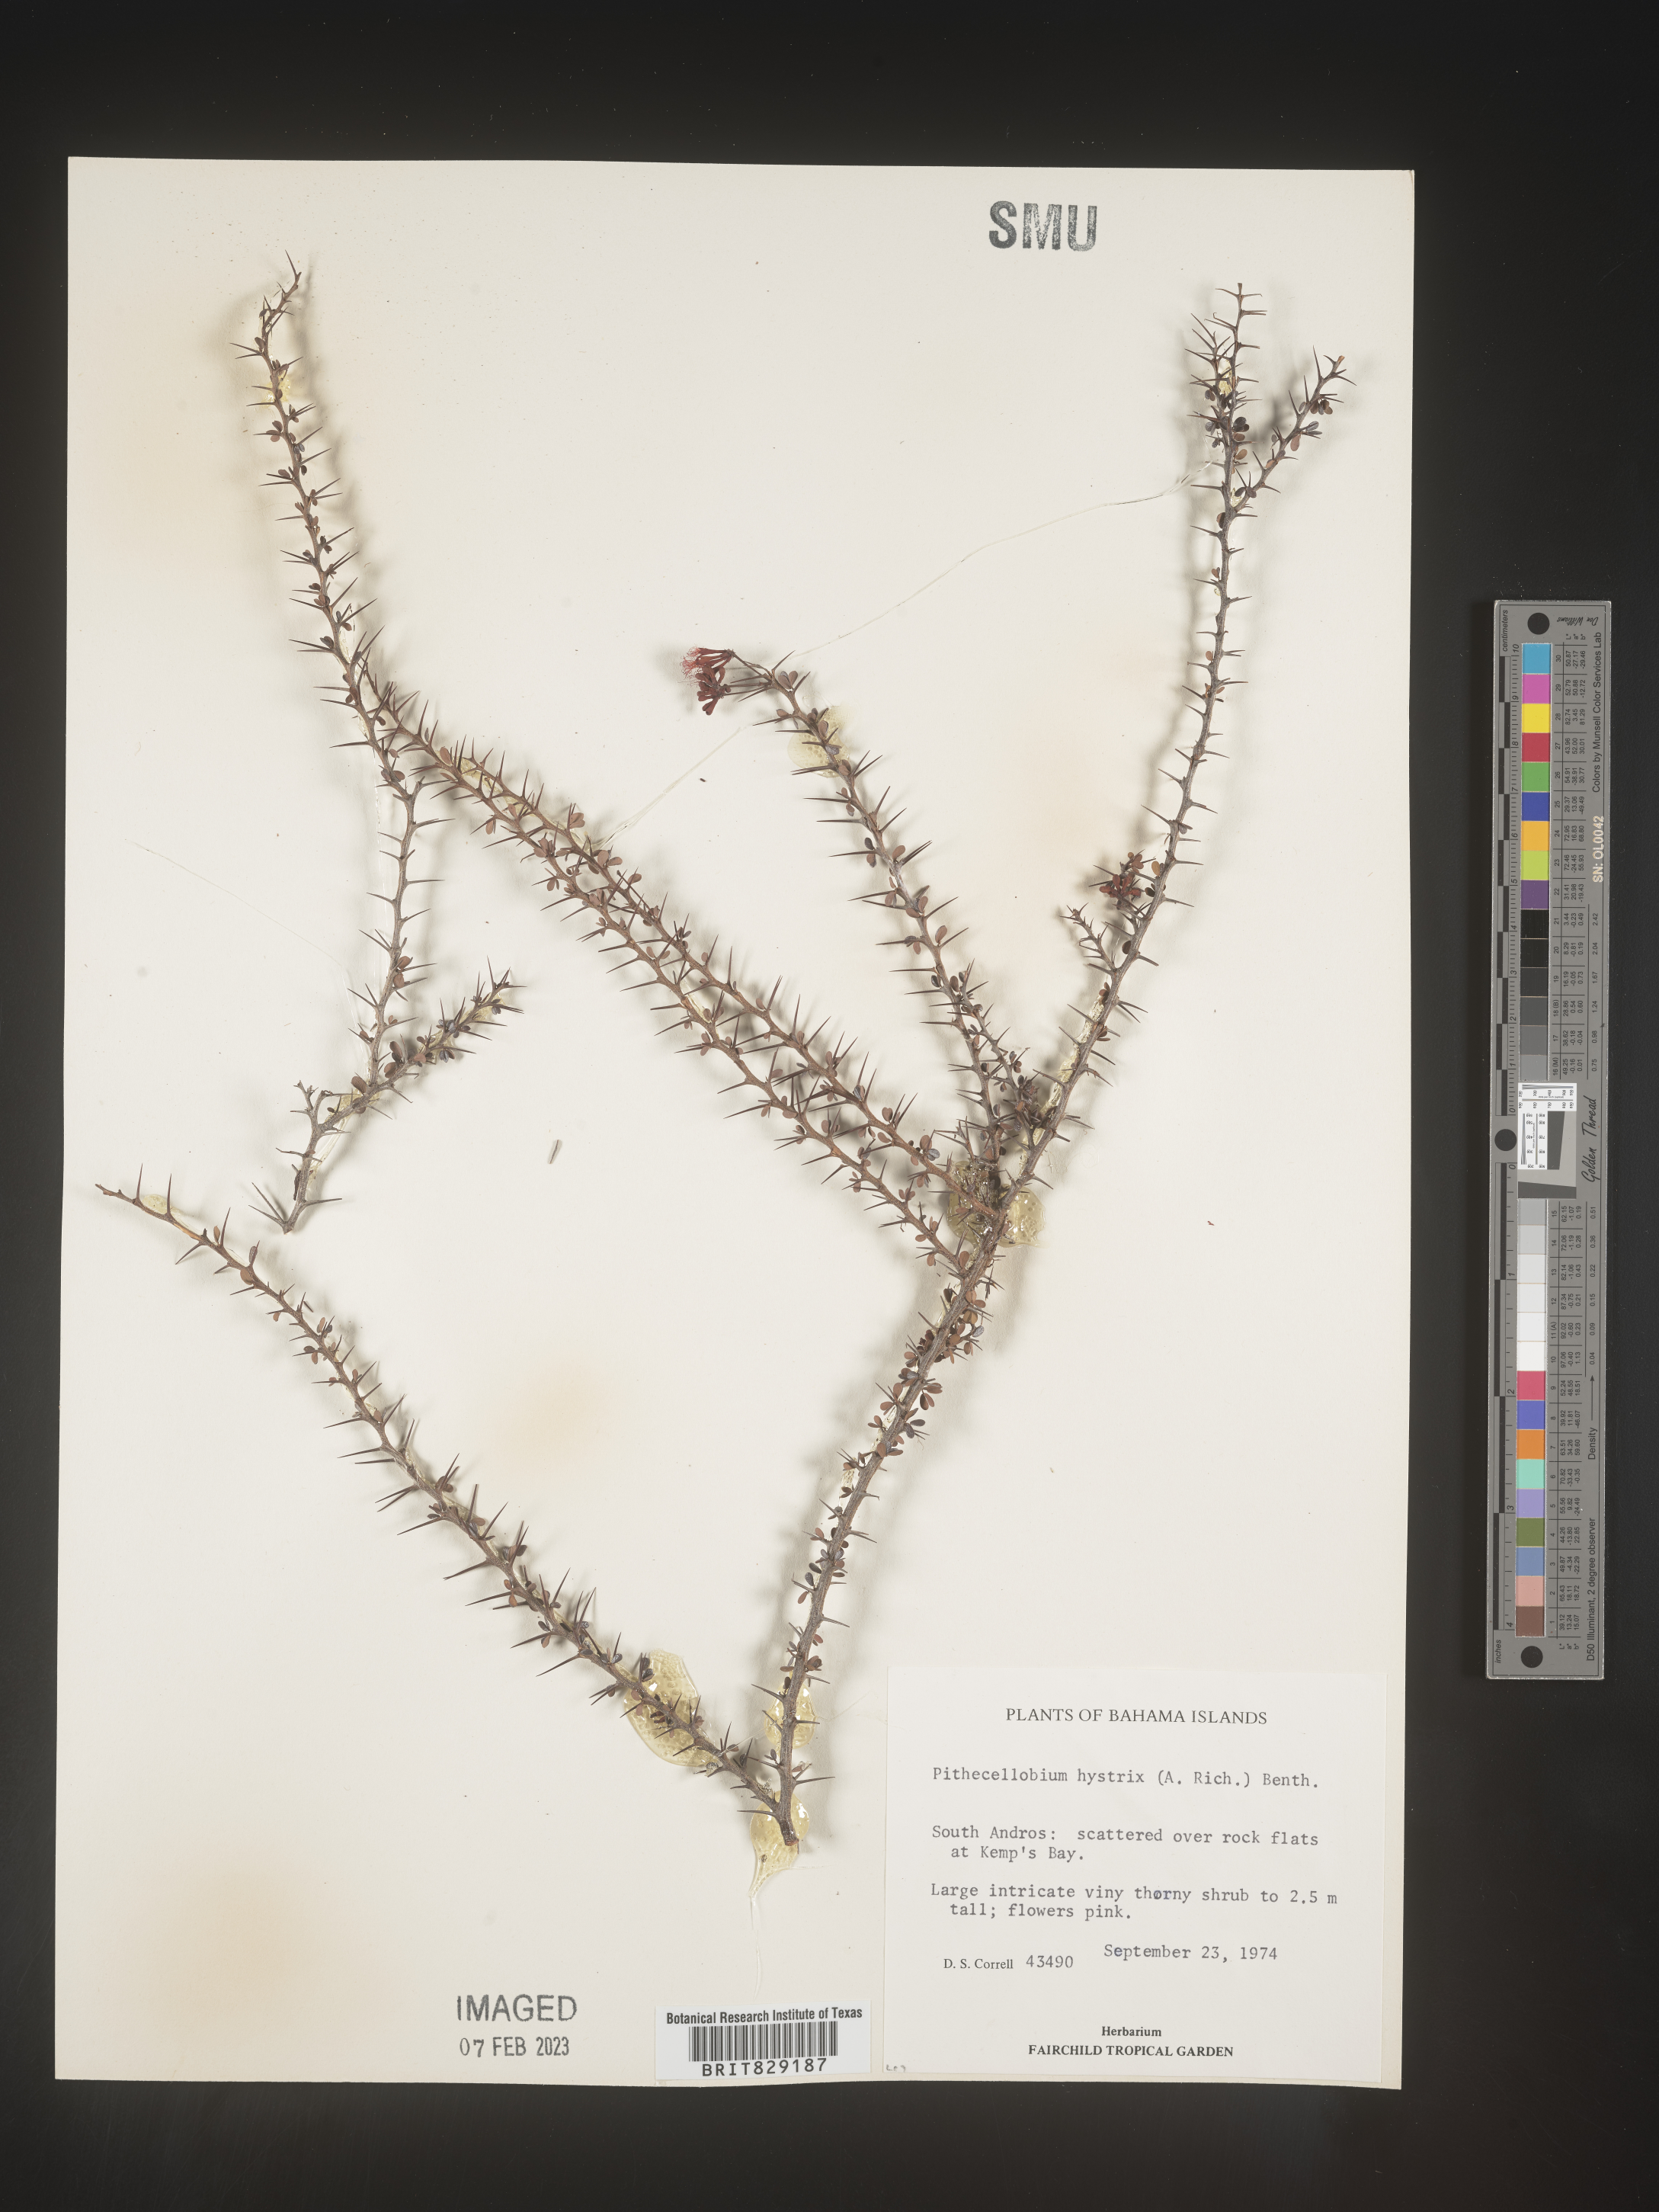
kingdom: Plantae
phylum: Tracheophyta
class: Magnoliopsida
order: Fabales
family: Fabaceae
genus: Pithecellobium
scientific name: Pithecellobium
